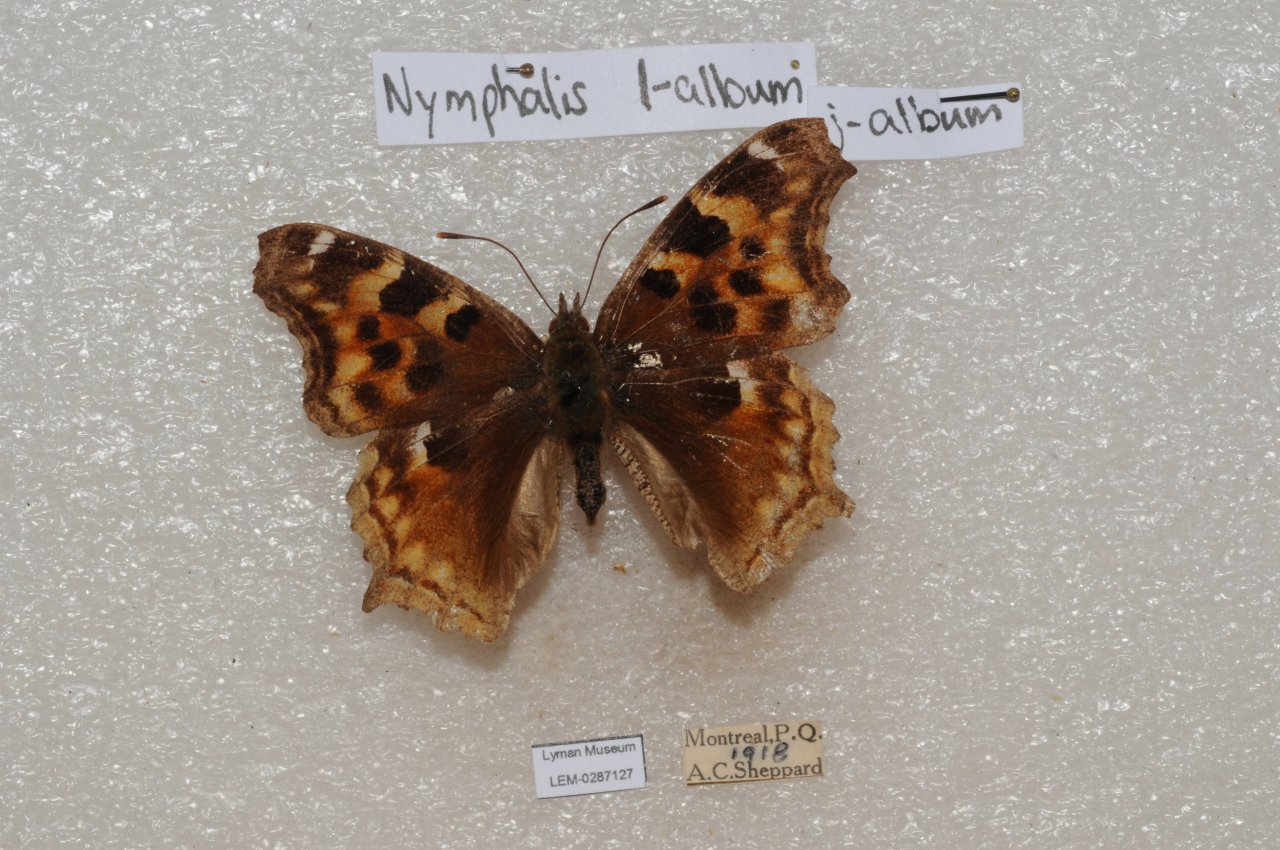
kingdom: Animalia
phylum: Arthropoda
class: Insecta
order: Lepidoptera
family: Nymphalidae
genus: Polygonia
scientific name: Polygonia vaualbum
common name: Compton Tortoiseshell
